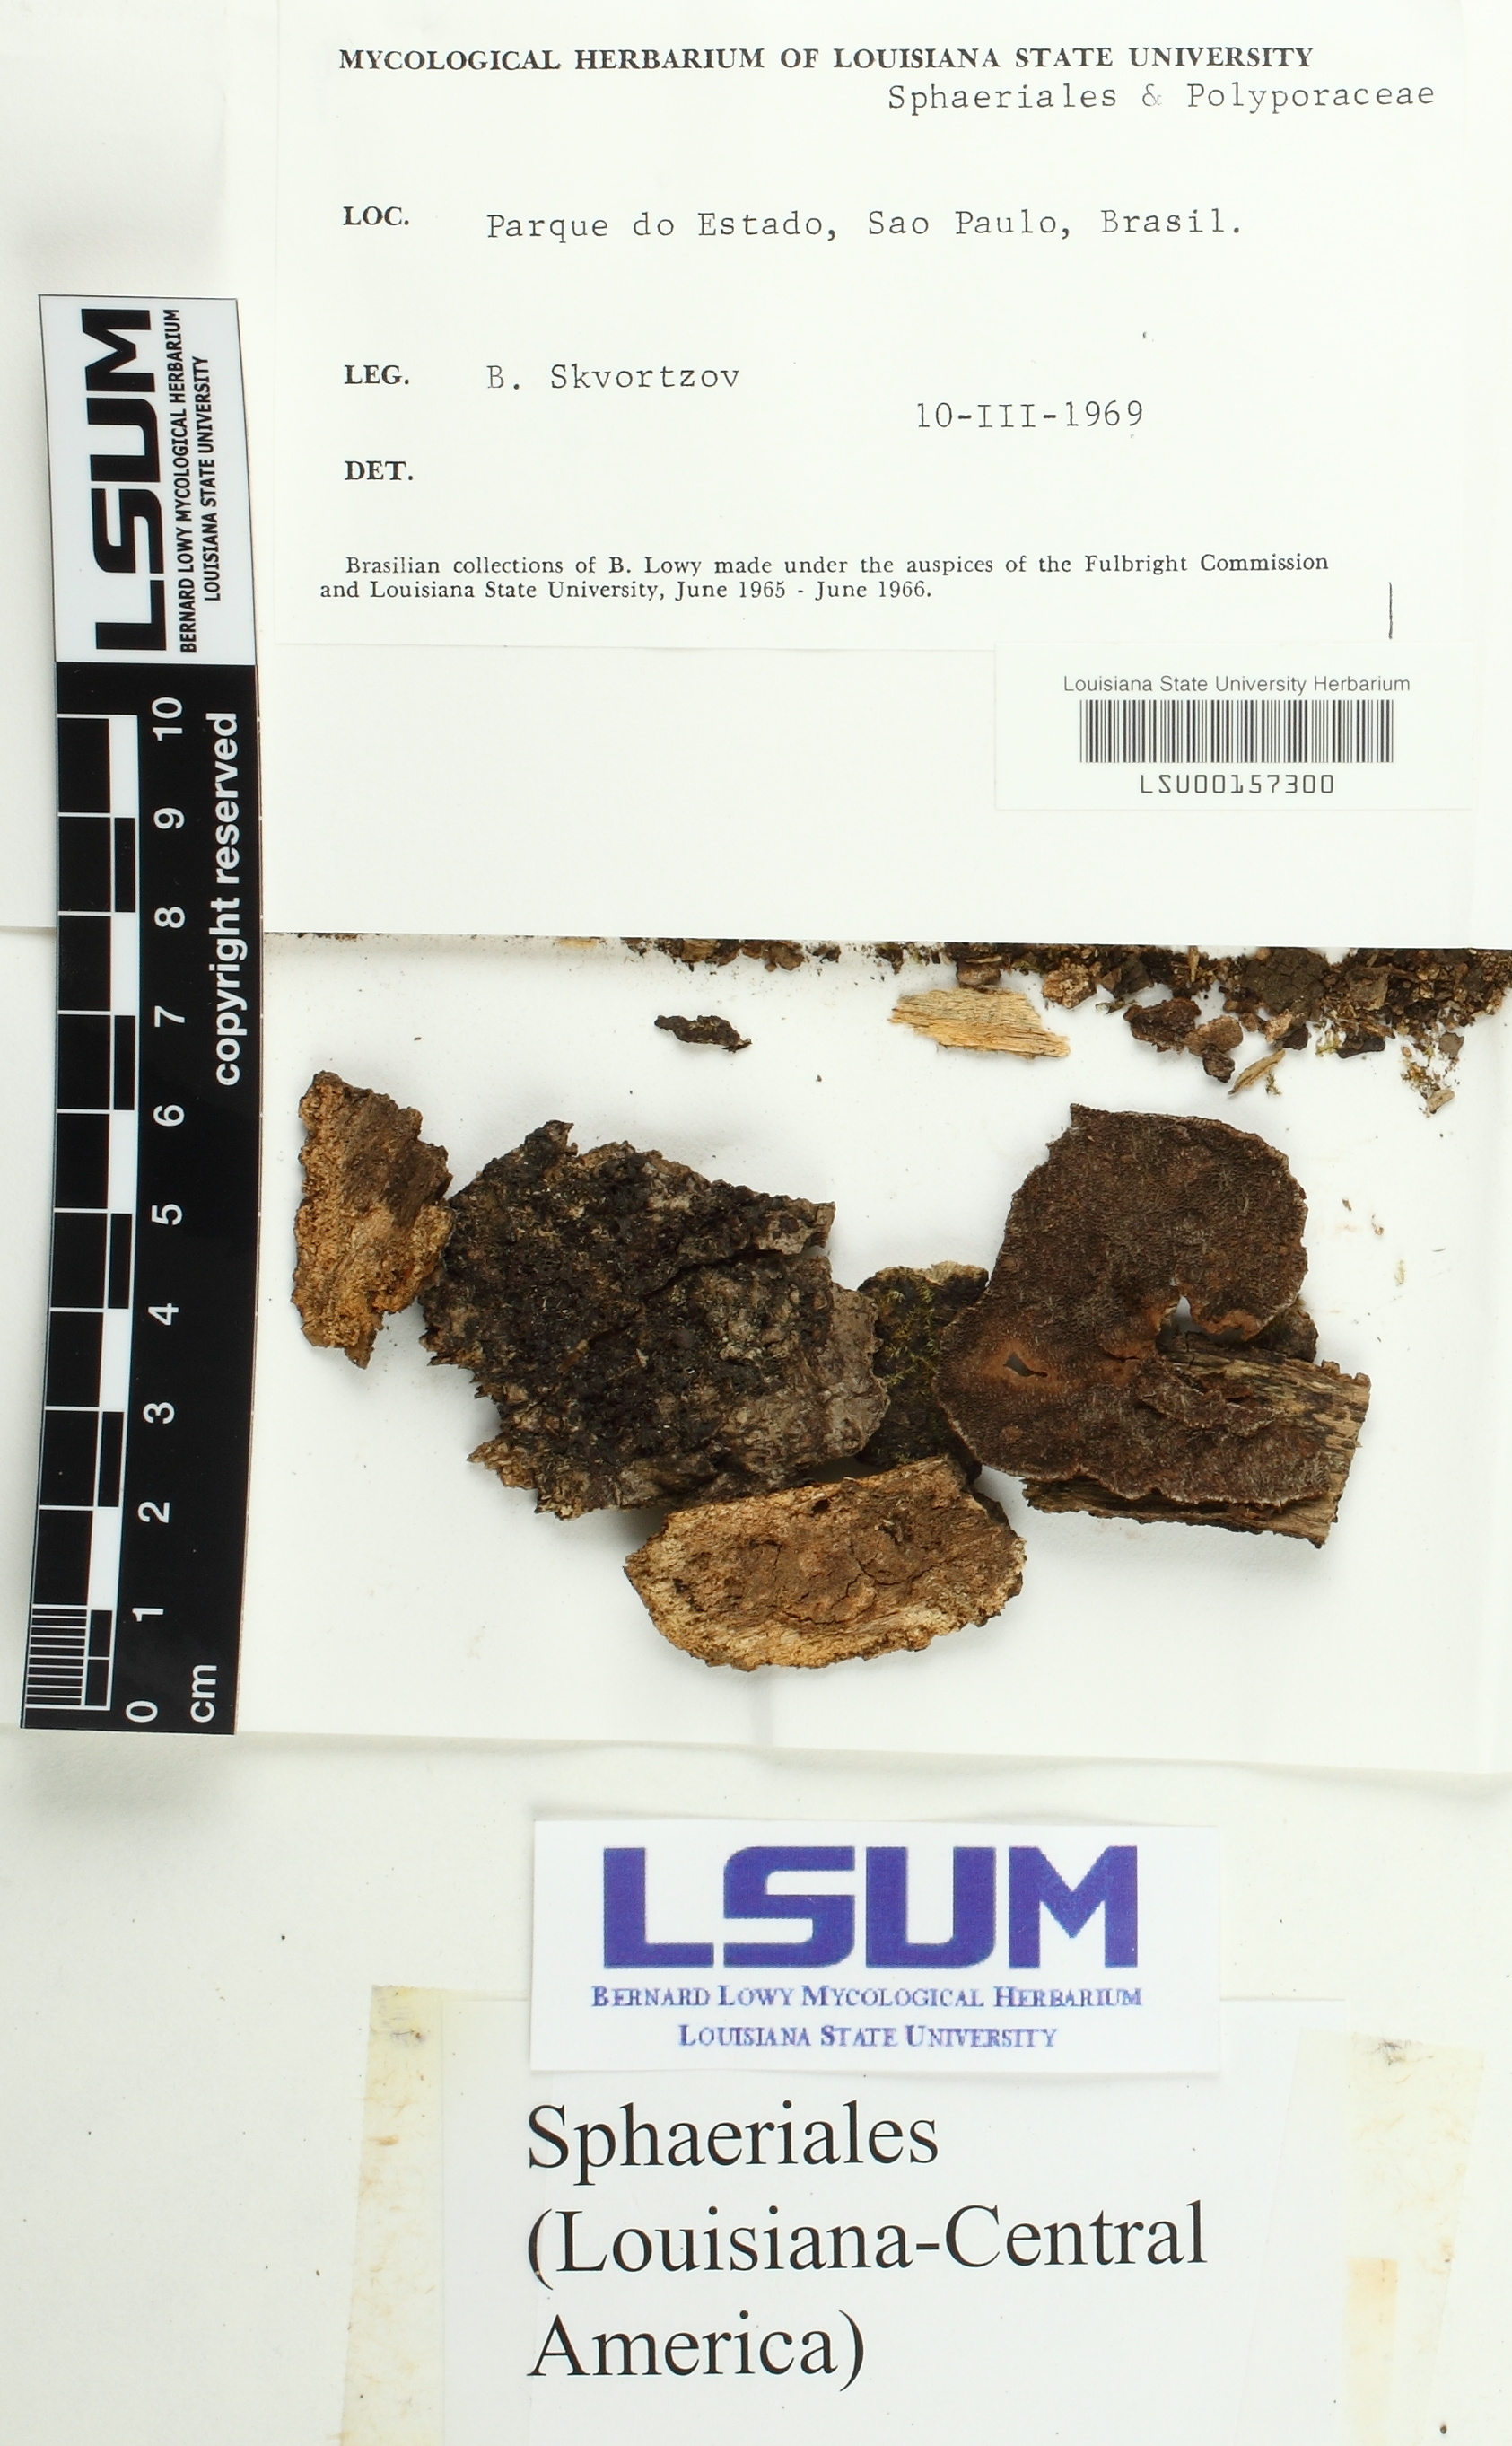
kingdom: Fungi
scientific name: Fungi
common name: Fungi
